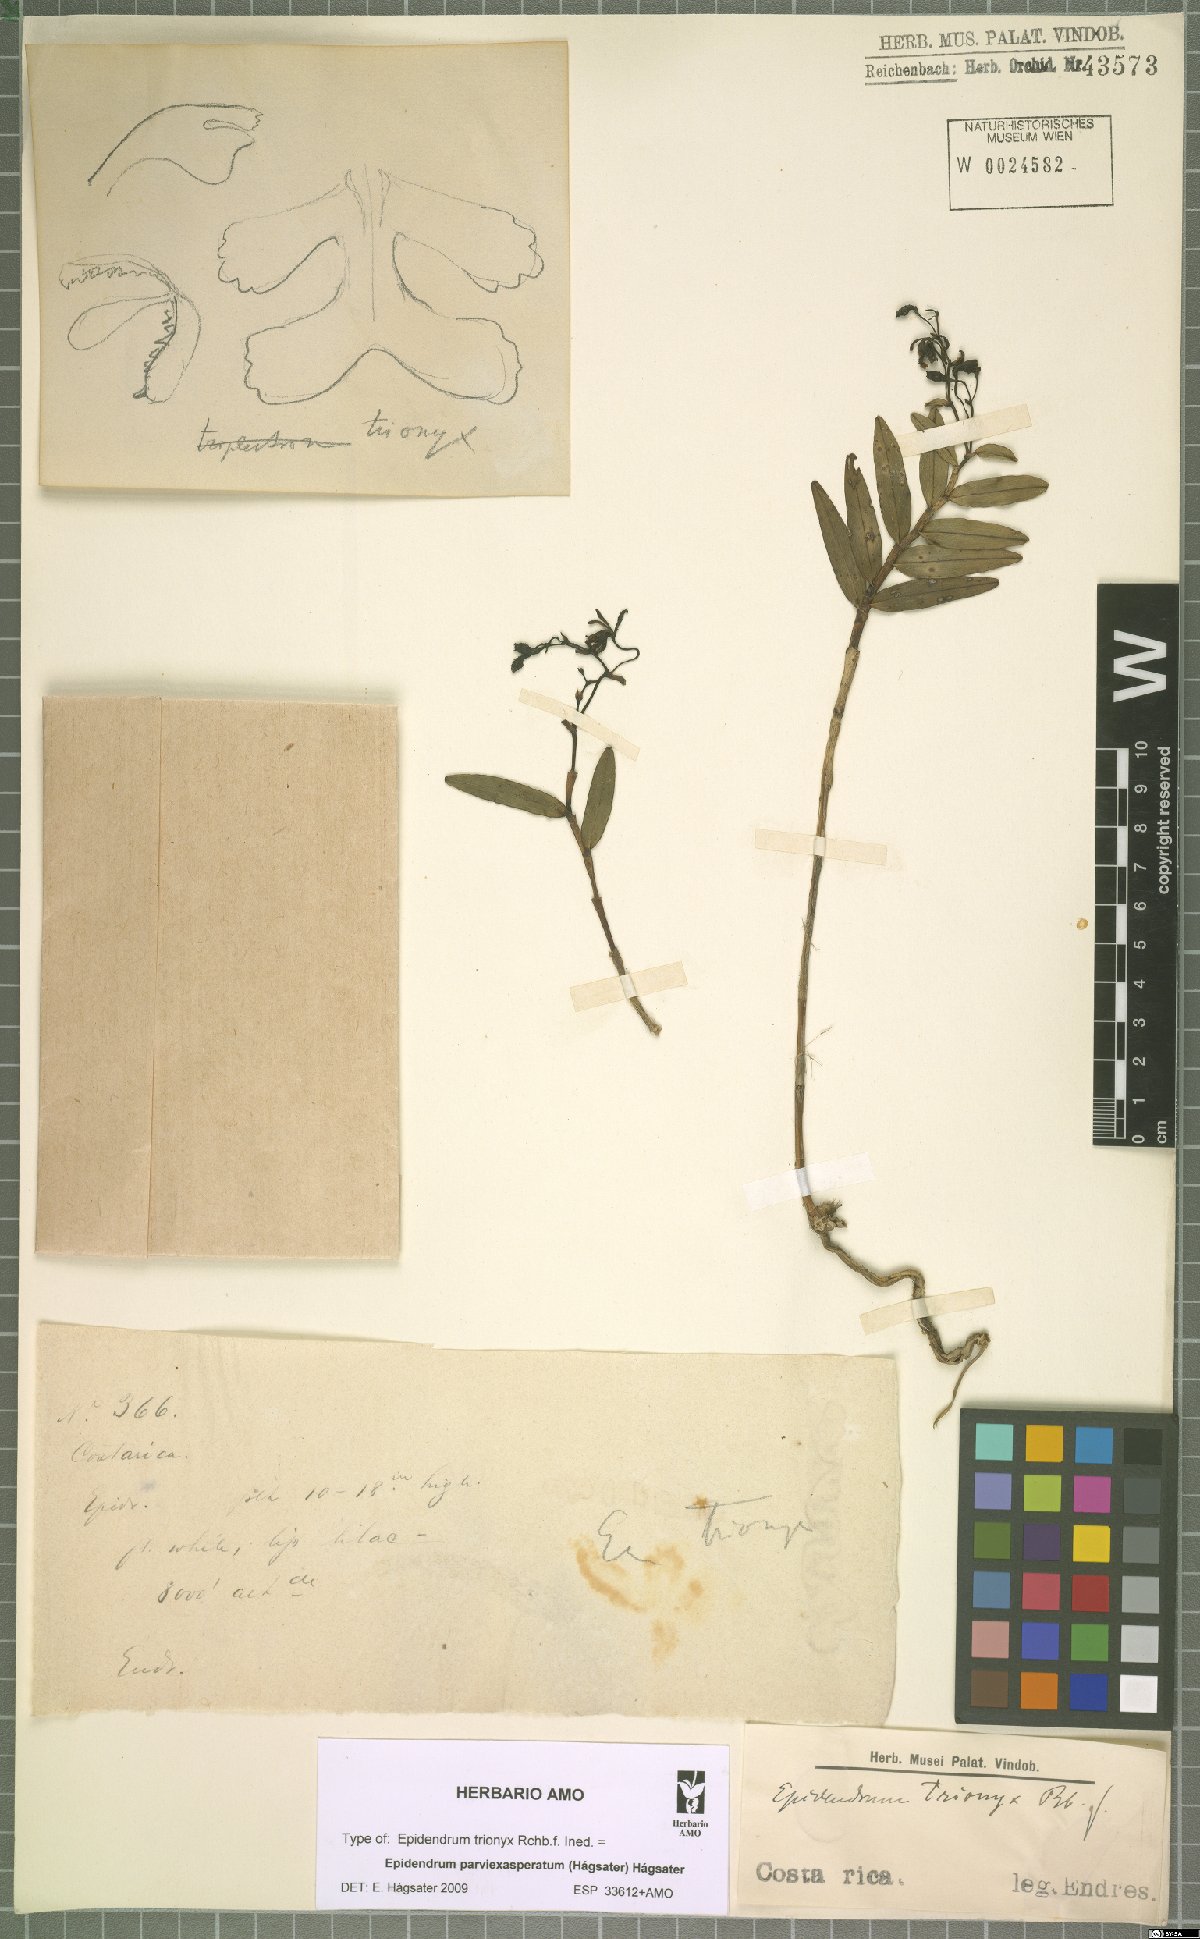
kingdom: Plantae
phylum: Tracheophyta
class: Liliopsida
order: Asparagales
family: Orchidaceae
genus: Epidendrum
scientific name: Epidendrum parviexasperatum
